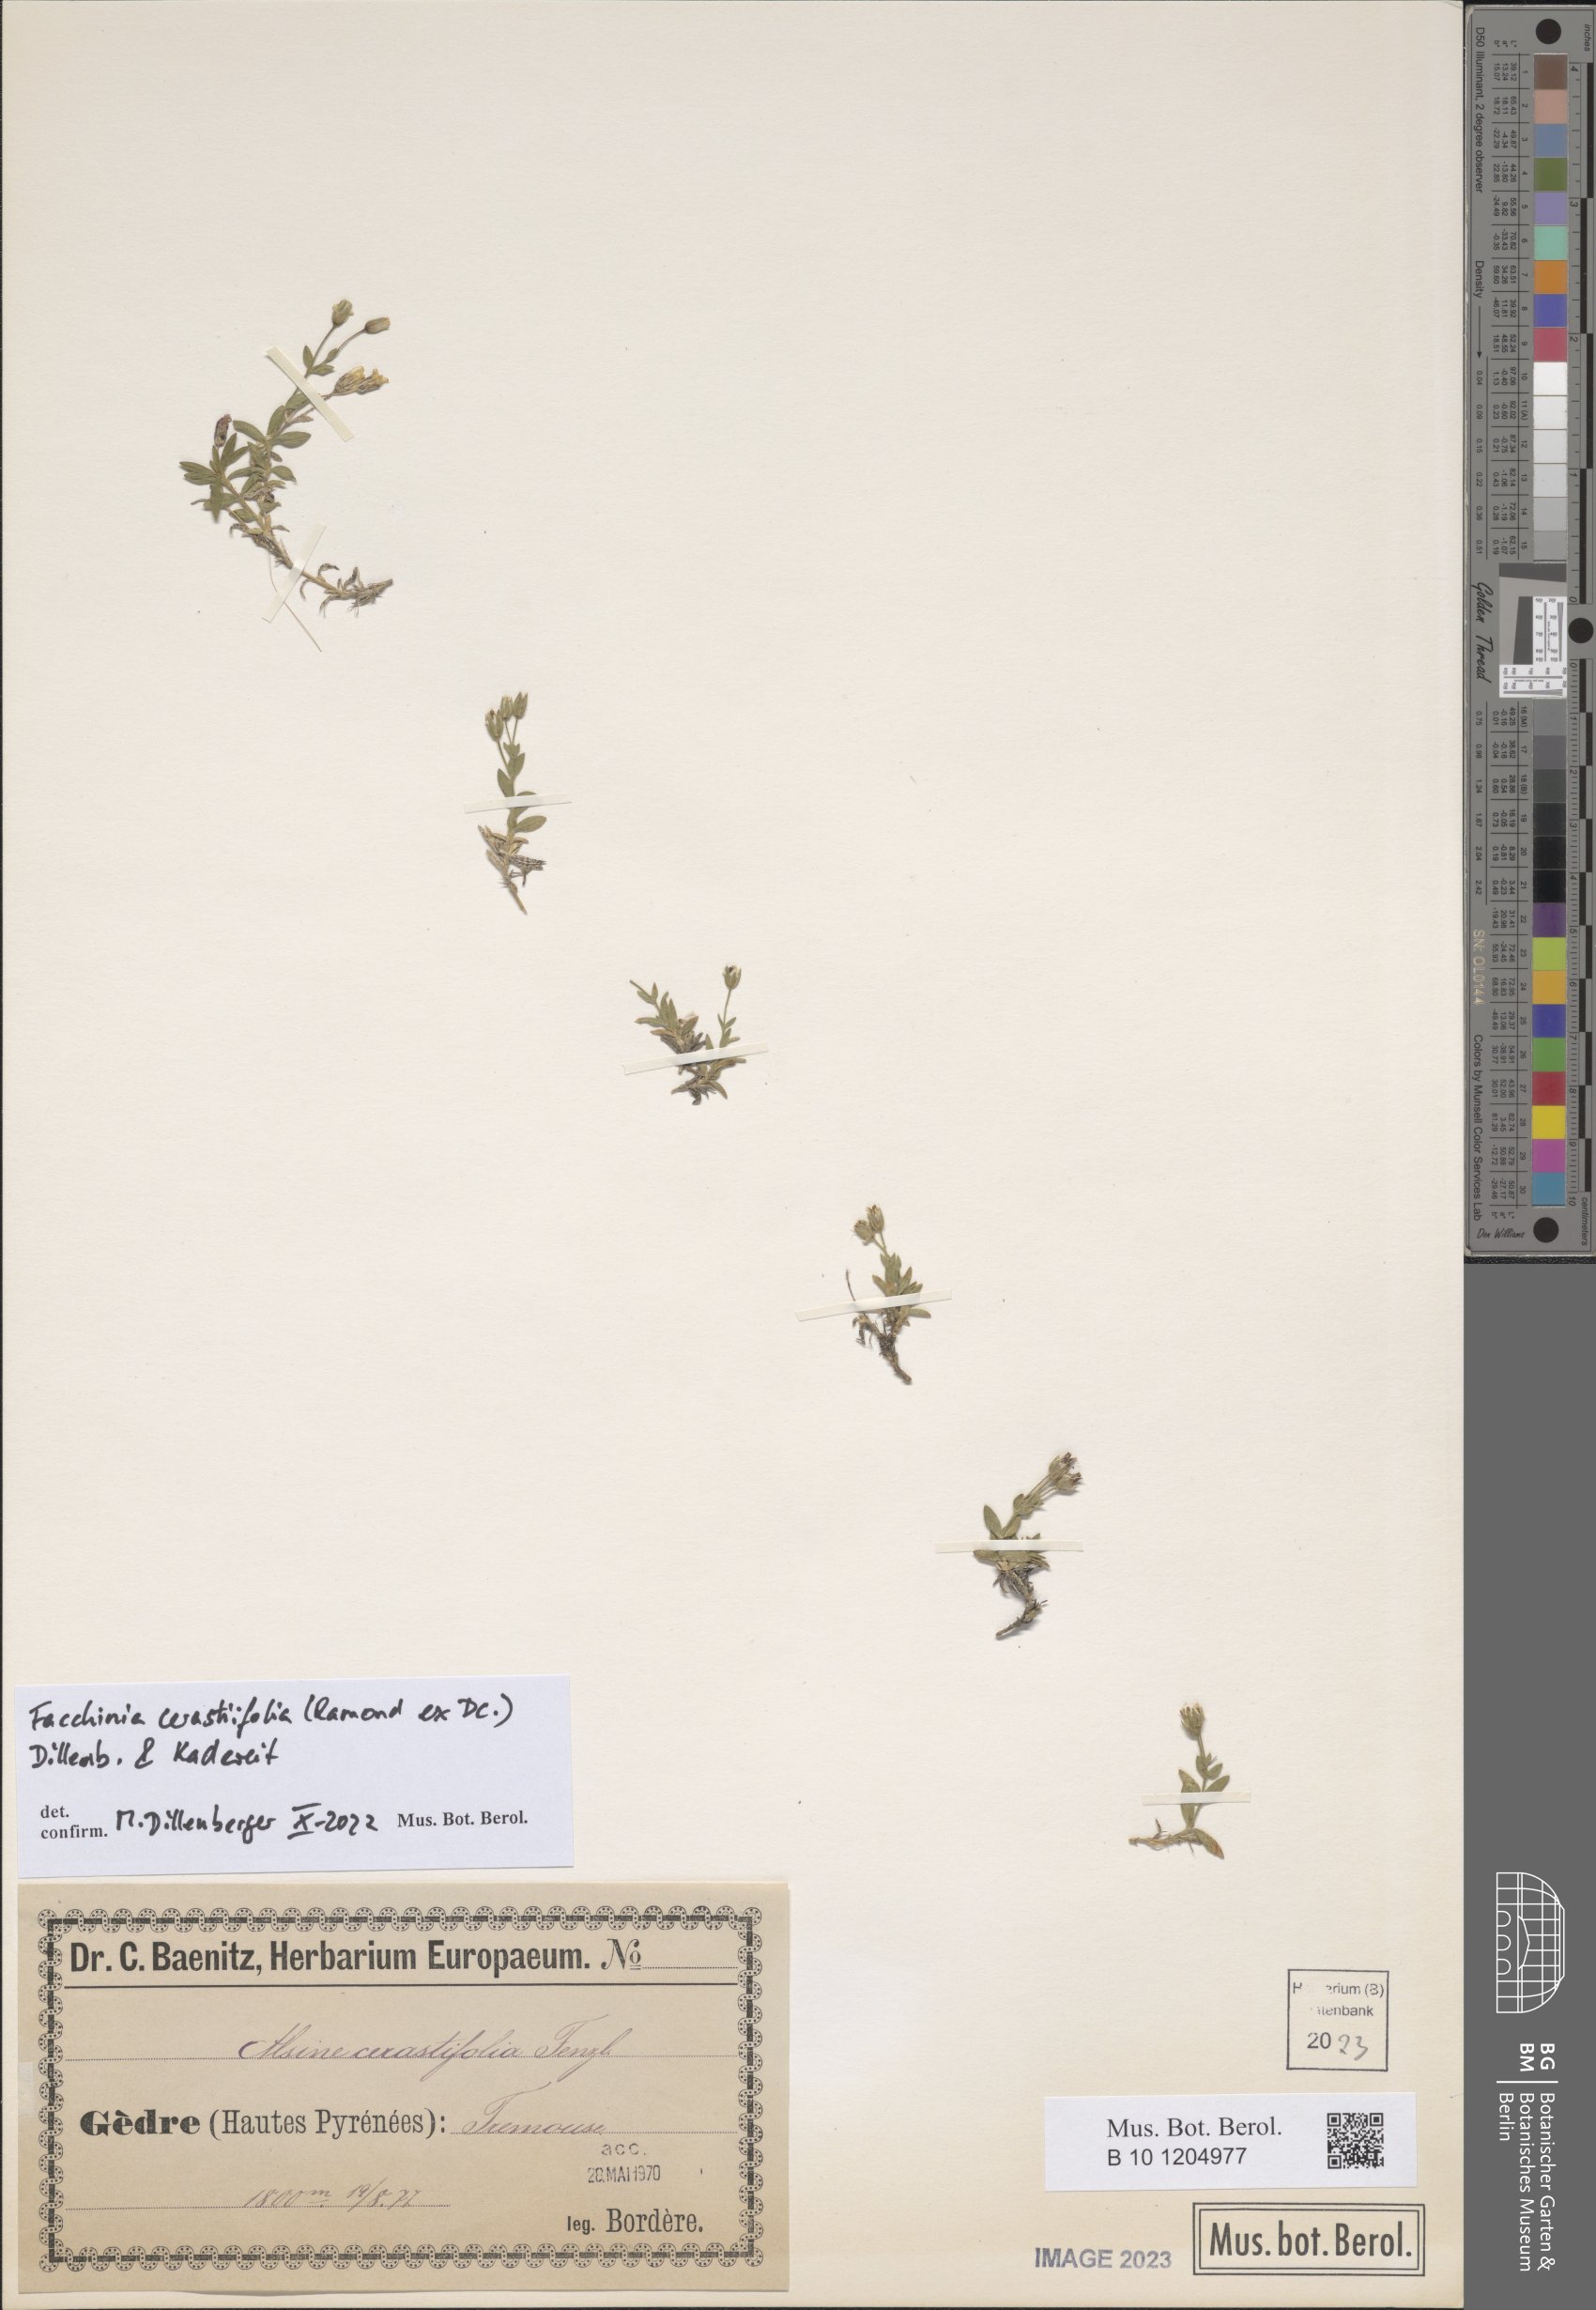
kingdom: Plantae
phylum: Tracheophyta
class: Magnoliopsida
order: Caryophyllales
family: Caryophyllaceae
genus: Facchinia
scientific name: Facchinia cerastiifolia
